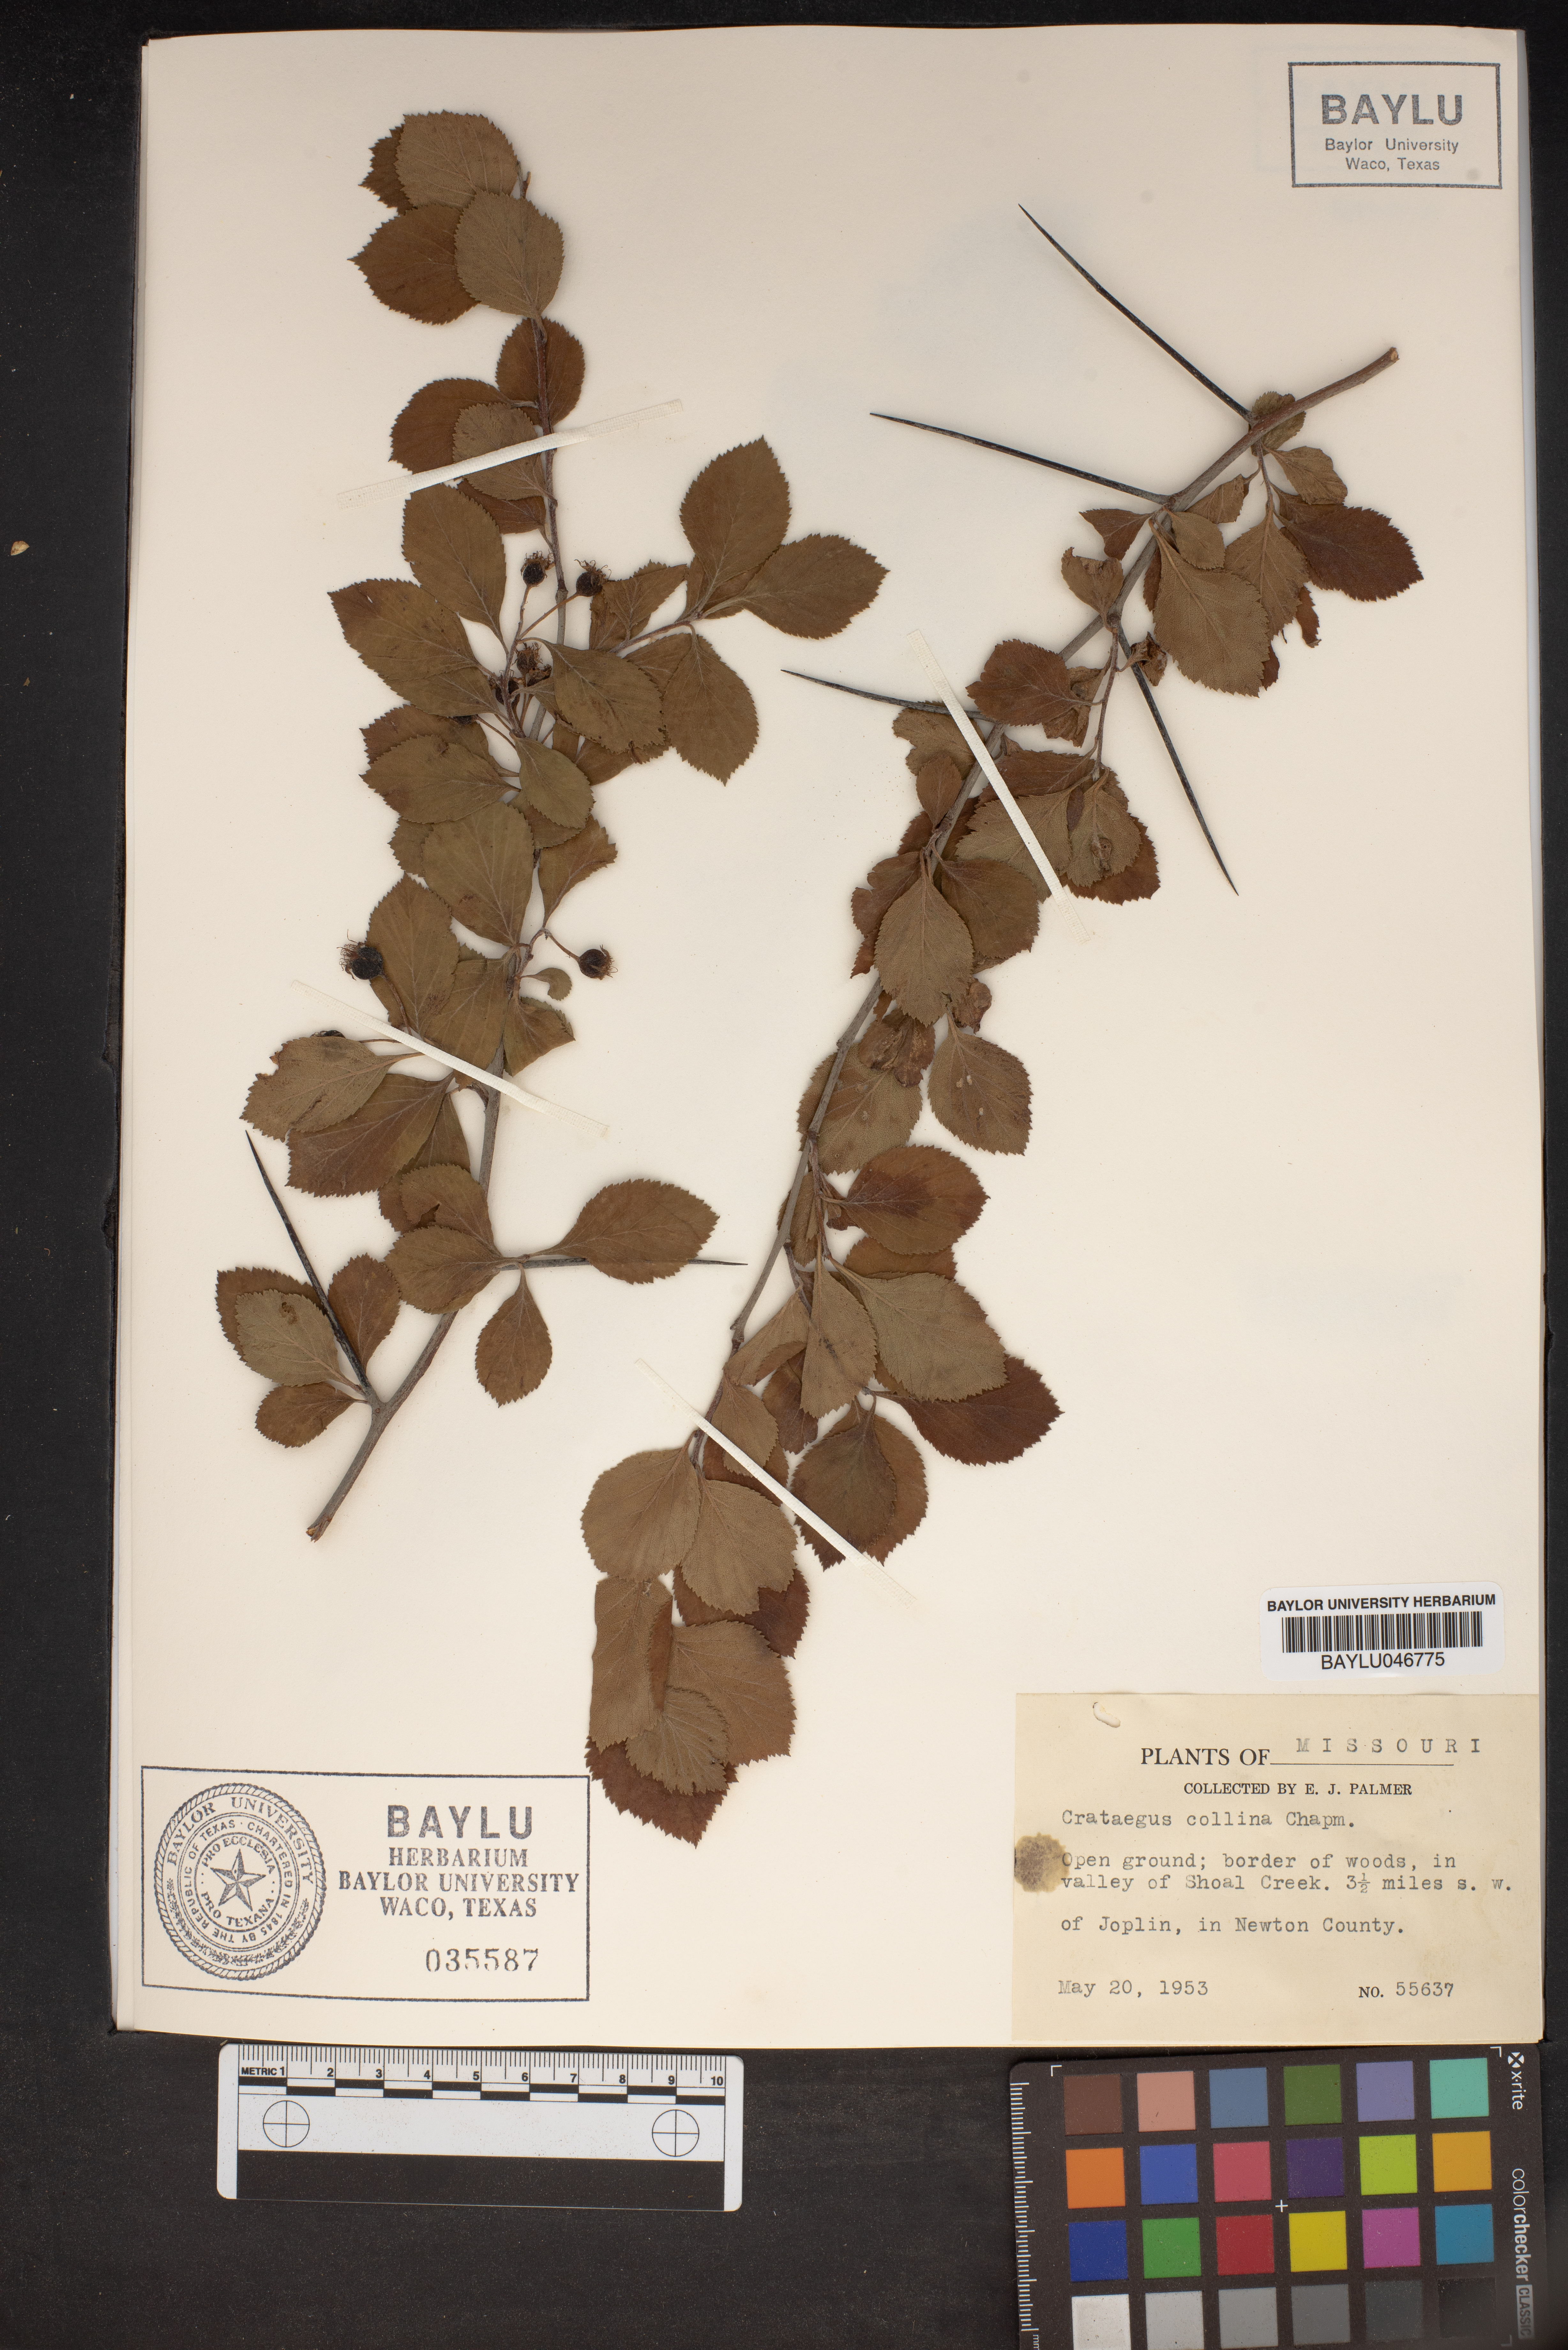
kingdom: Plantae
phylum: Tracheophyta
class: Magnoliopsida
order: Rosales
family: Rosaceae
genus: Crataegus
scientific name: Crataegus collina
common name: Hillside hawthorn
